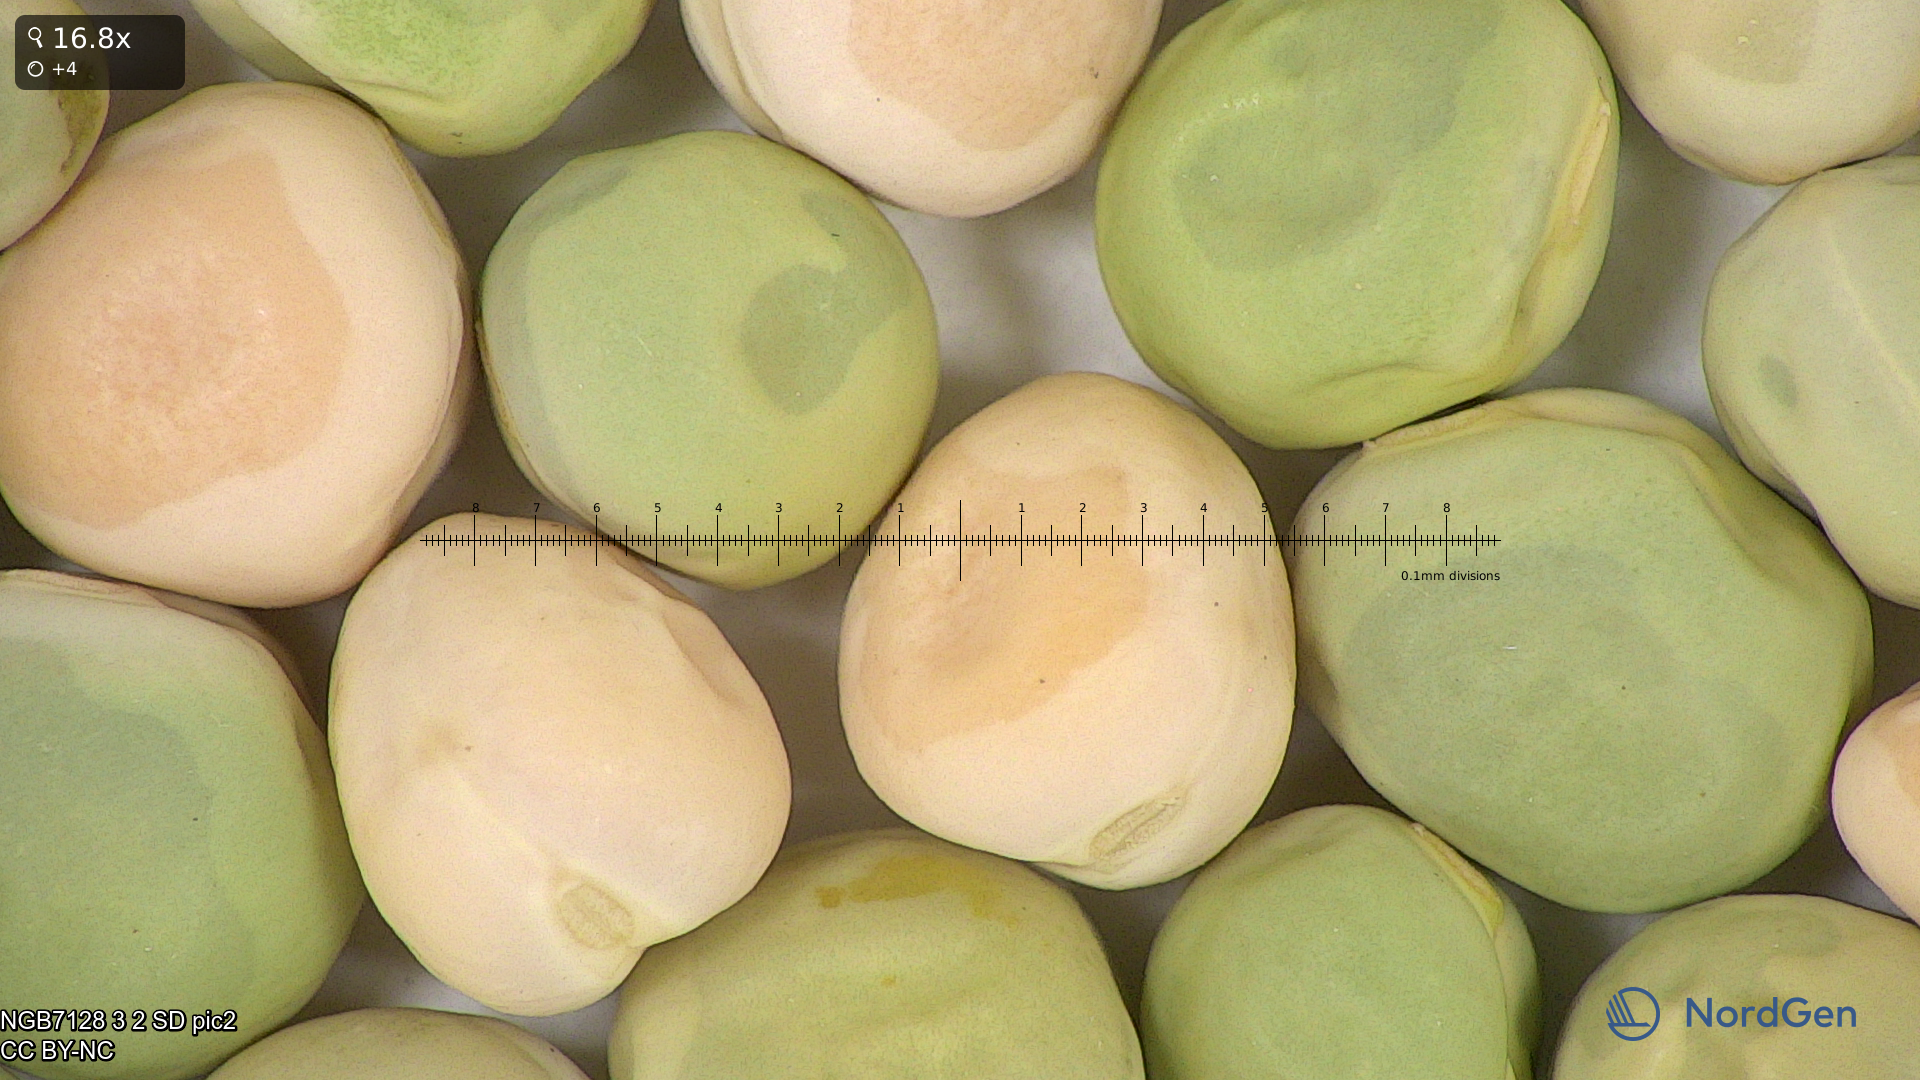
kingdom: Plantae
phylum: Tracheophyta
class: Magnoliopsida
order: Fabales
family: Fabaceae
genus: Lathyrus
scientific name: Lathyrus oleraceus
